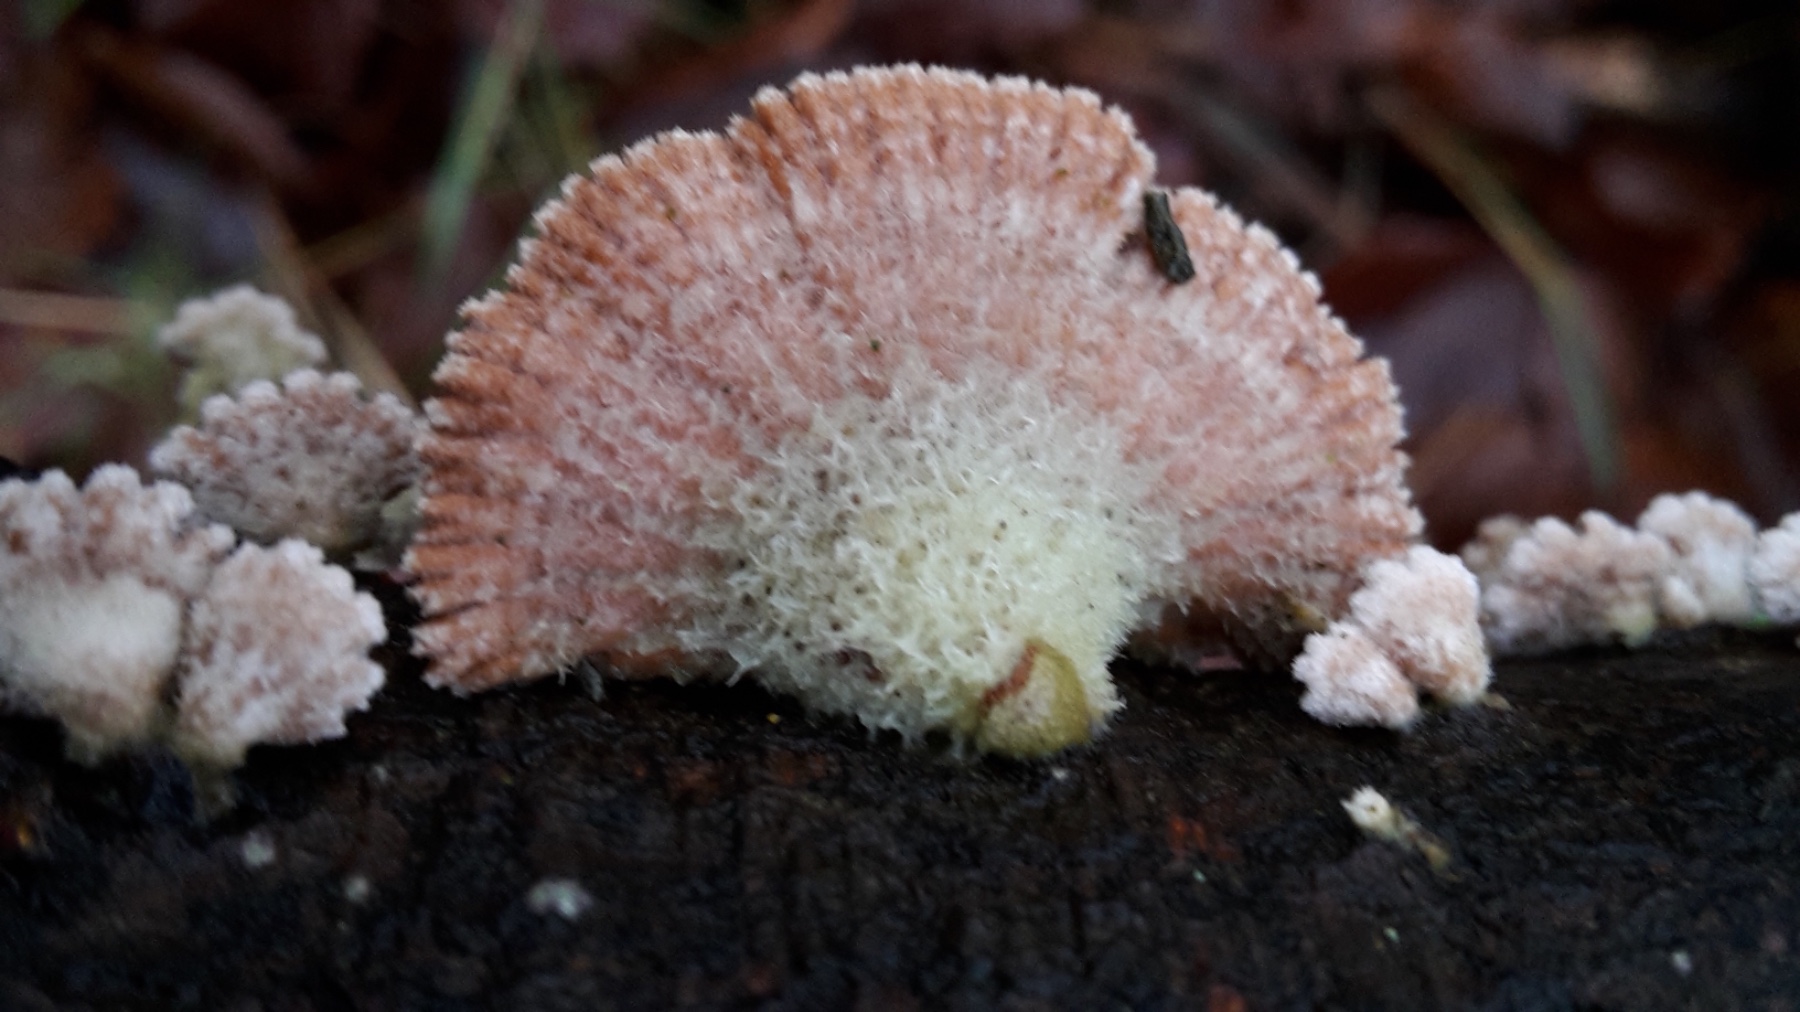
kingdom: Fungi
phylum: Basidiomycota
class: Agaricomycetes
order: Agaricales
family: Schizophyllaceae
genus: Schizophyllum
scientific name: Schizophyllum commune
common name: kløvblad
